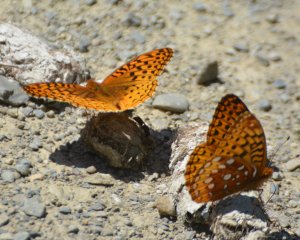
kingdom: Animalia
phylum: Arthropoda
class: Insecta
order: Lepidoptera
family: Nymphalidae
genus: Speyeria
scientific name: Speyeria cybele
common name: Great Spangled Fritillary
